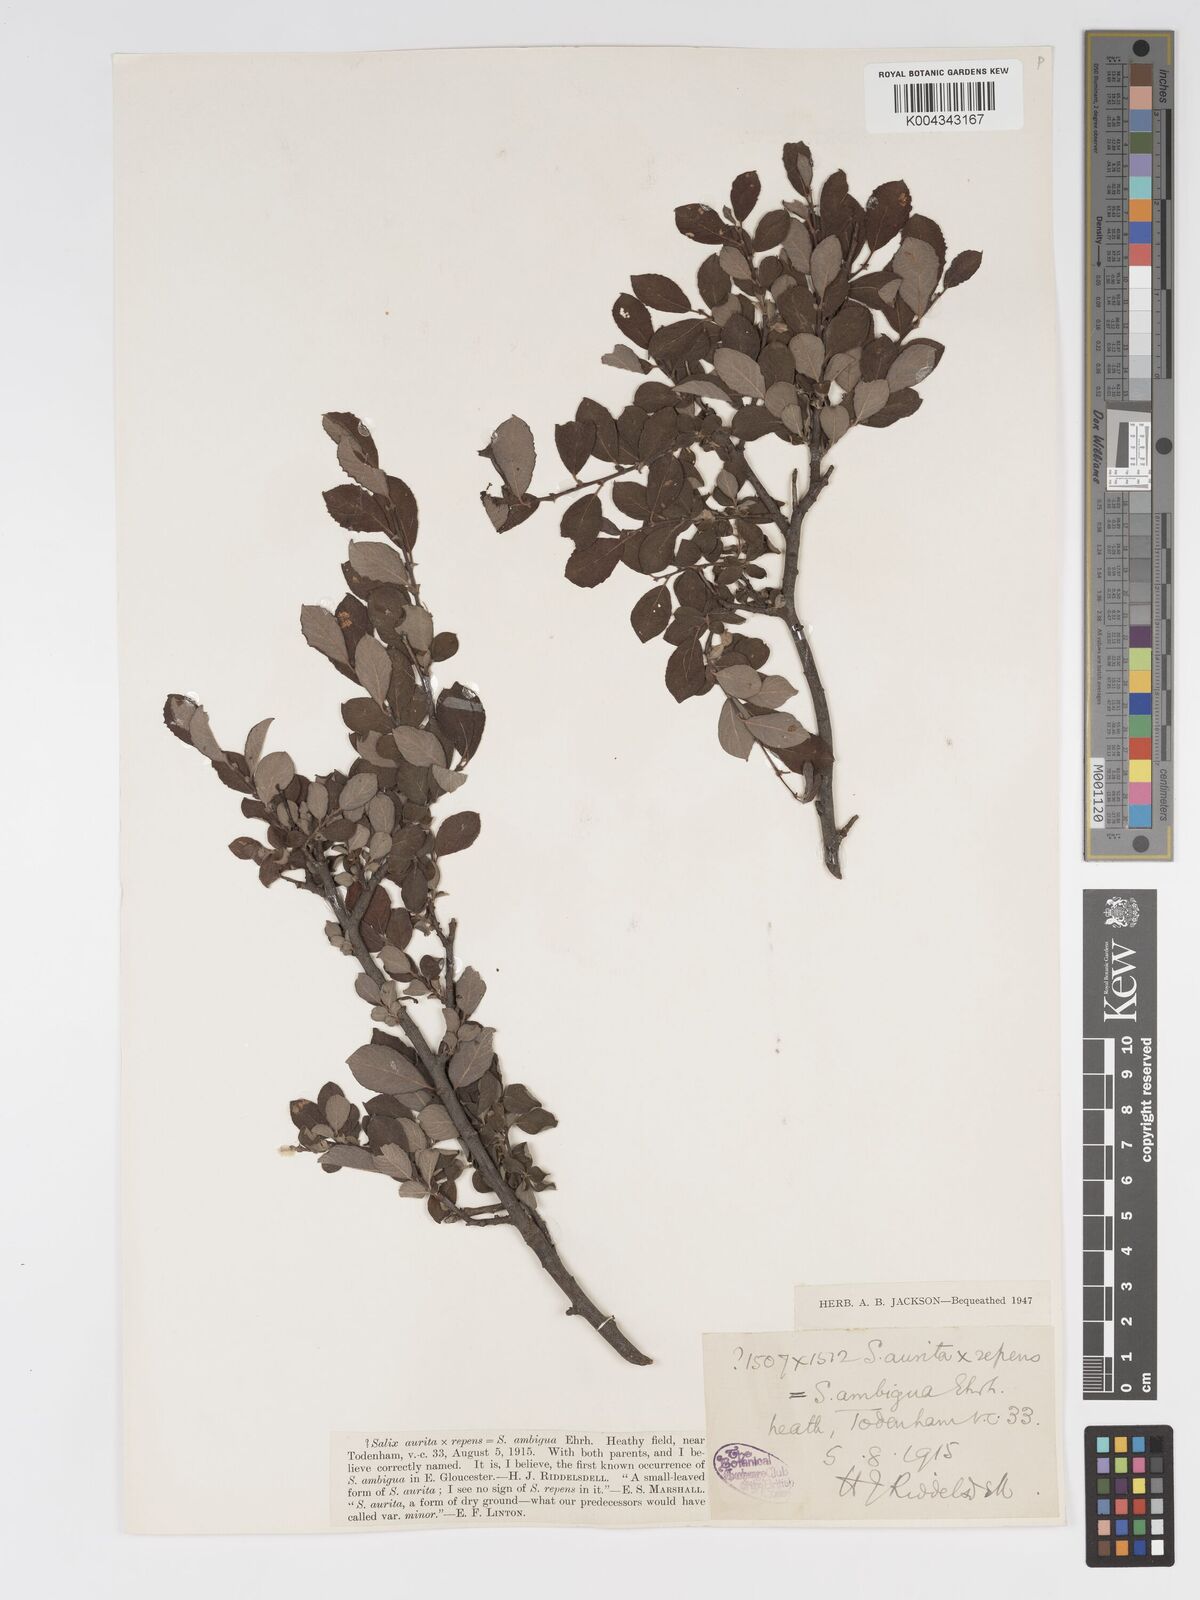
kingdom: Plantae
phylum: Tracheophyta
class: Magnoliopsida
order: Malpighiales
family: Salicaceae
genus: Salix
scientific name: Salix aurita
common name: Eared willow
